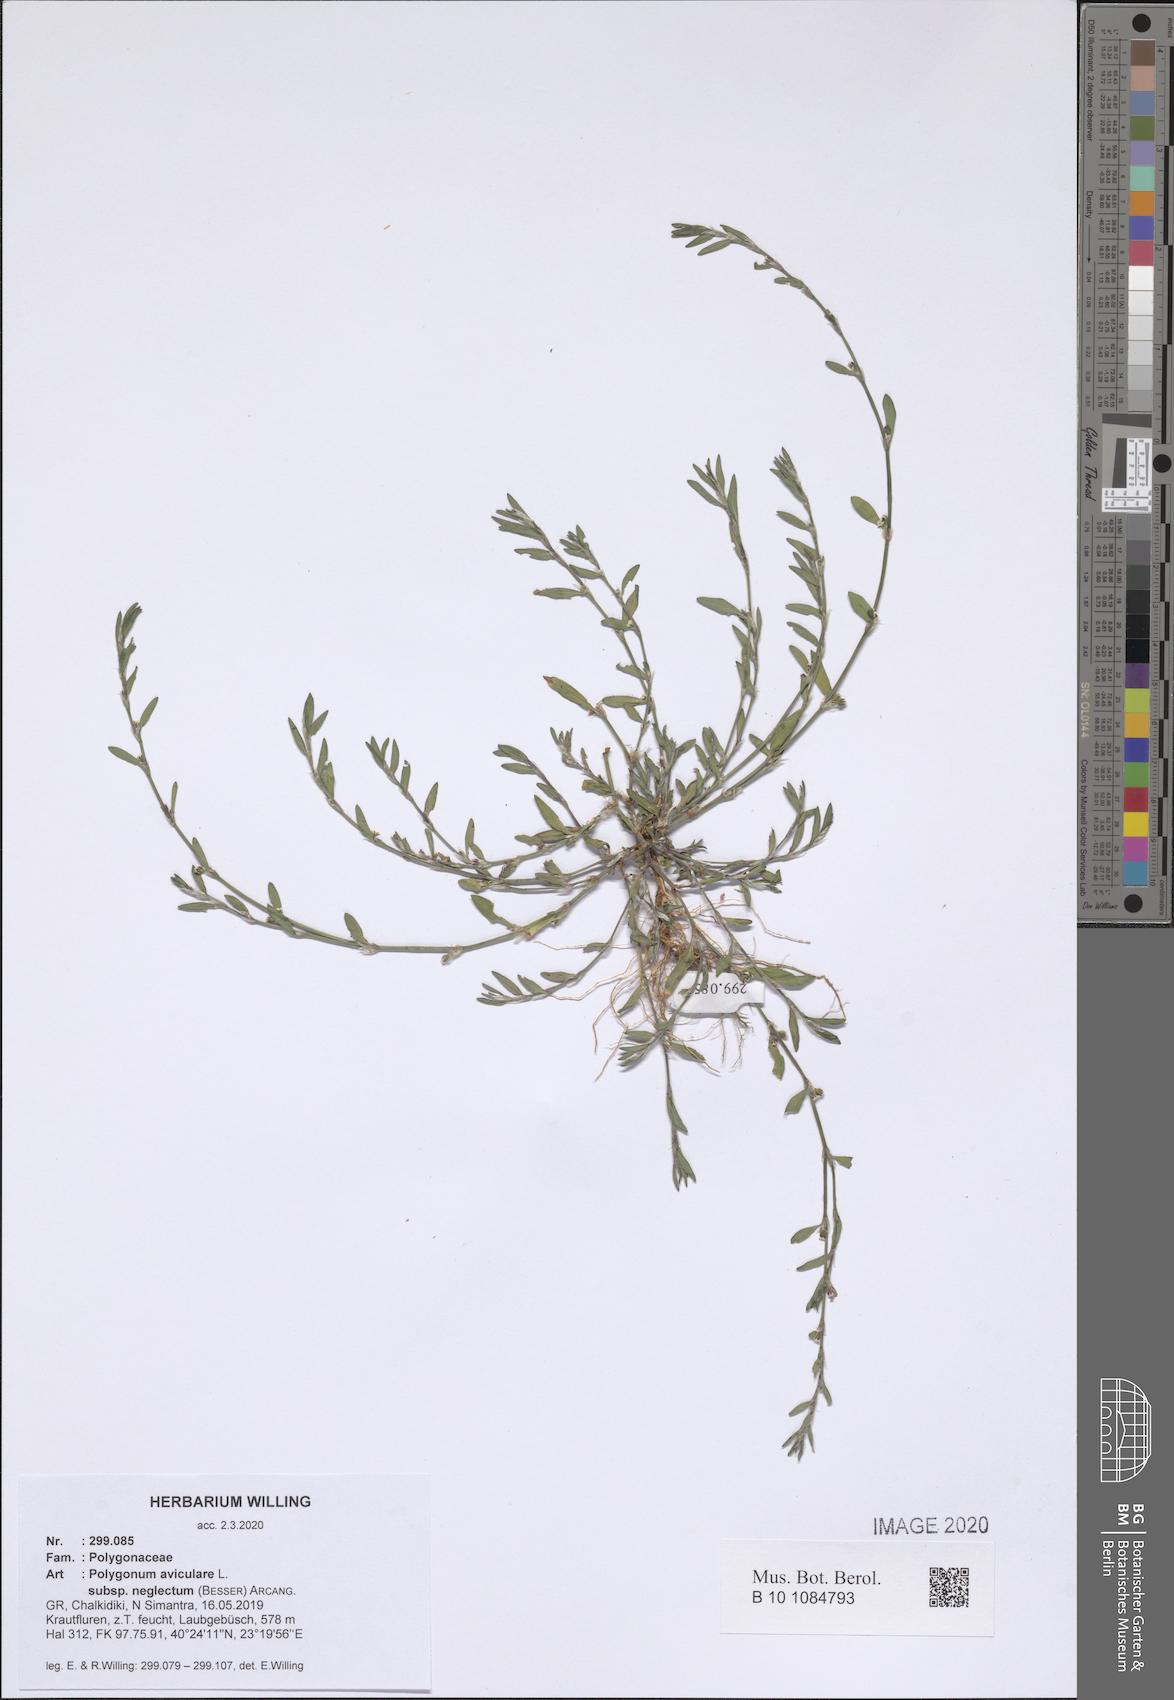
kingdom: Plantae
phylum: Tracheophyta
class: Magnoliopsida
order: Caryophyllales
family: Polygonaceae
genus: Polygonum
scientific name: Polygonum aviculare
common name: Prostrate knotweed
